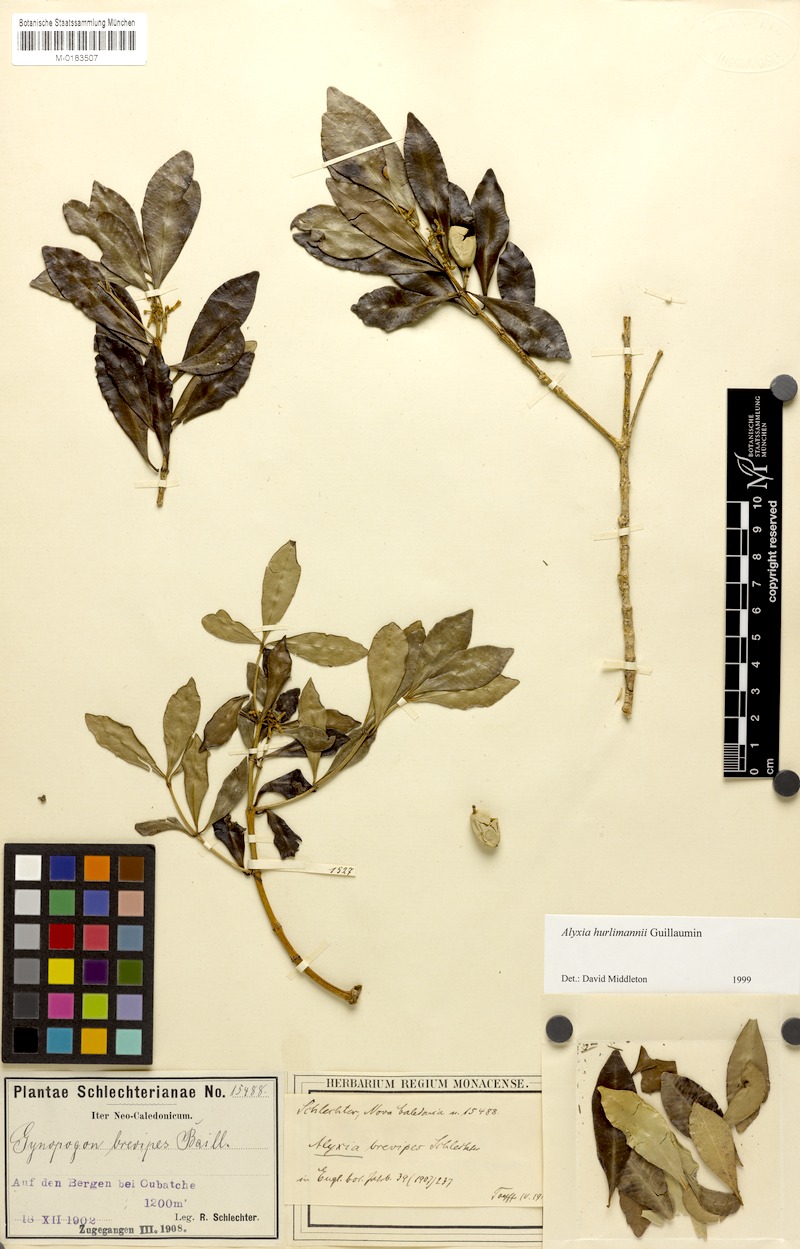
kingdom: Plantae
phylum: Tracheophyta
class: Magnoliopsida
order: Gentianales
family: Apocynaceae
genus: Alyxia
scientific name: Alyxia hurlimannii
